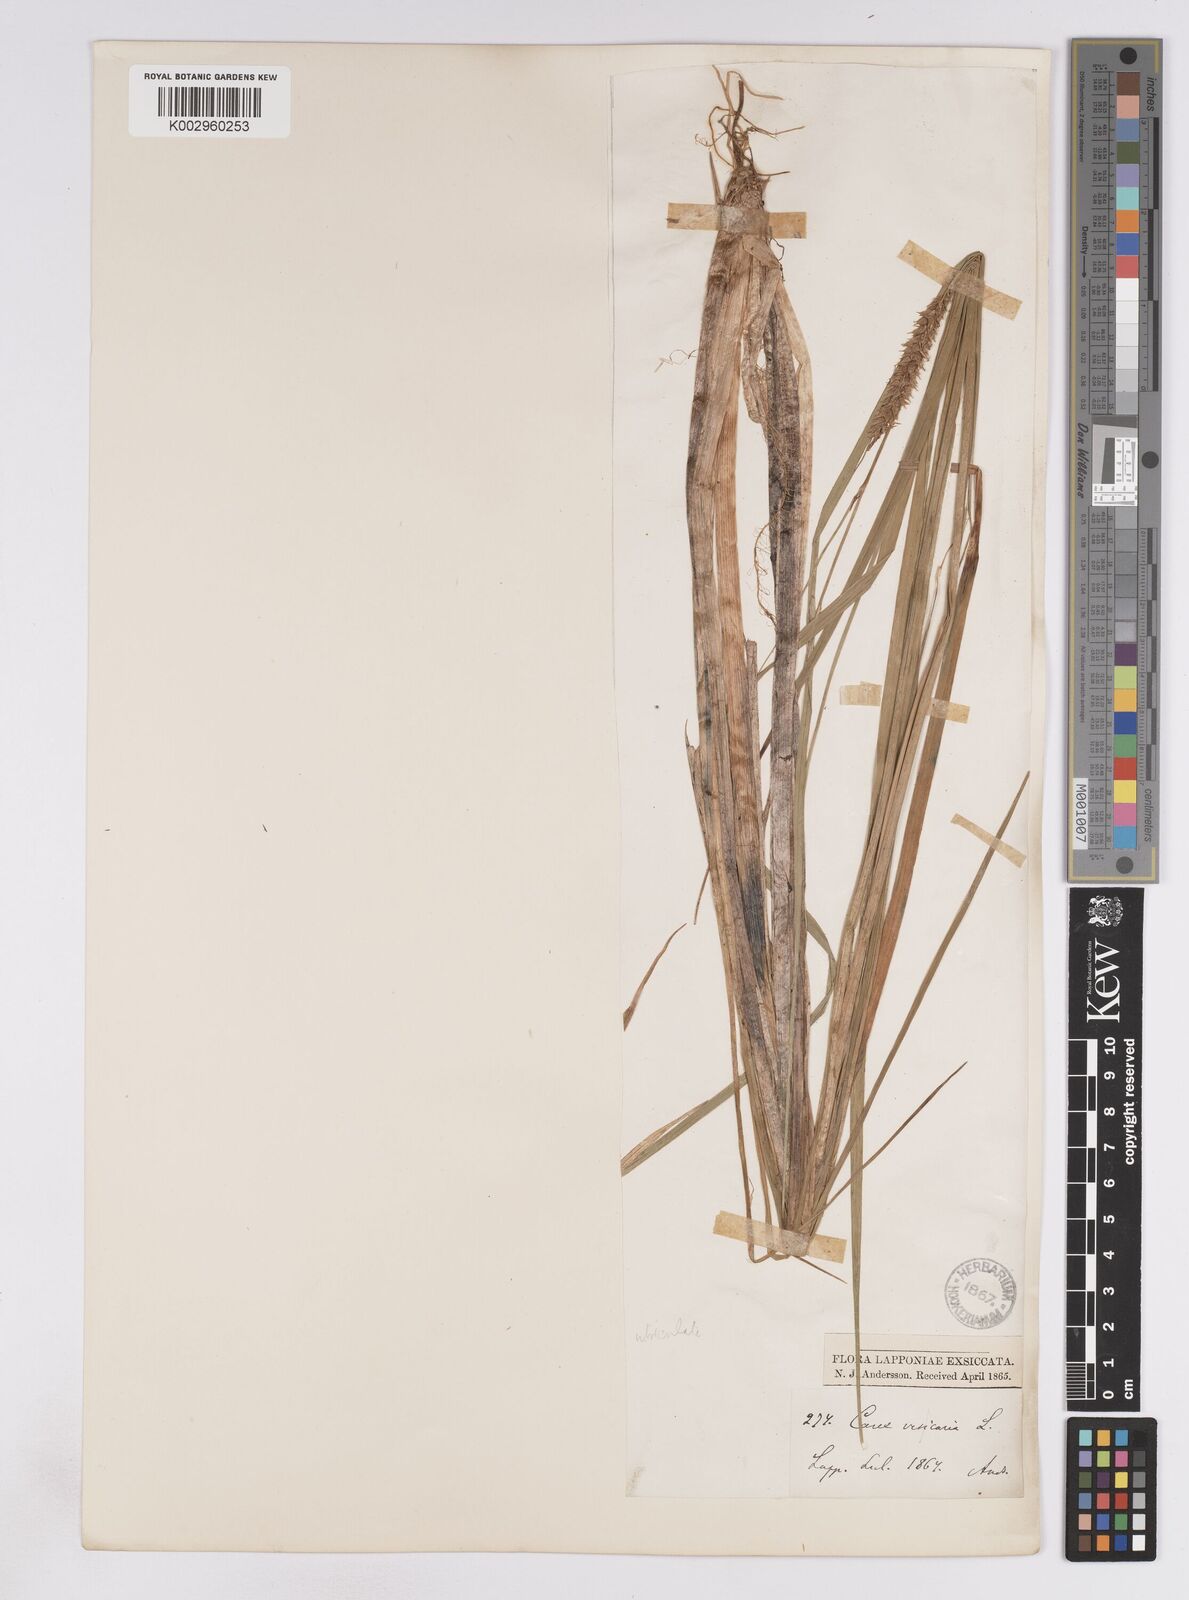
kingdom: Plantae
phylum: Tracheophyta
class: Liliopsida
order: Poales
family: Cyperaceae
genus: Carex
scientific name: Carex vesicaria
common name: Bladder-sedge
